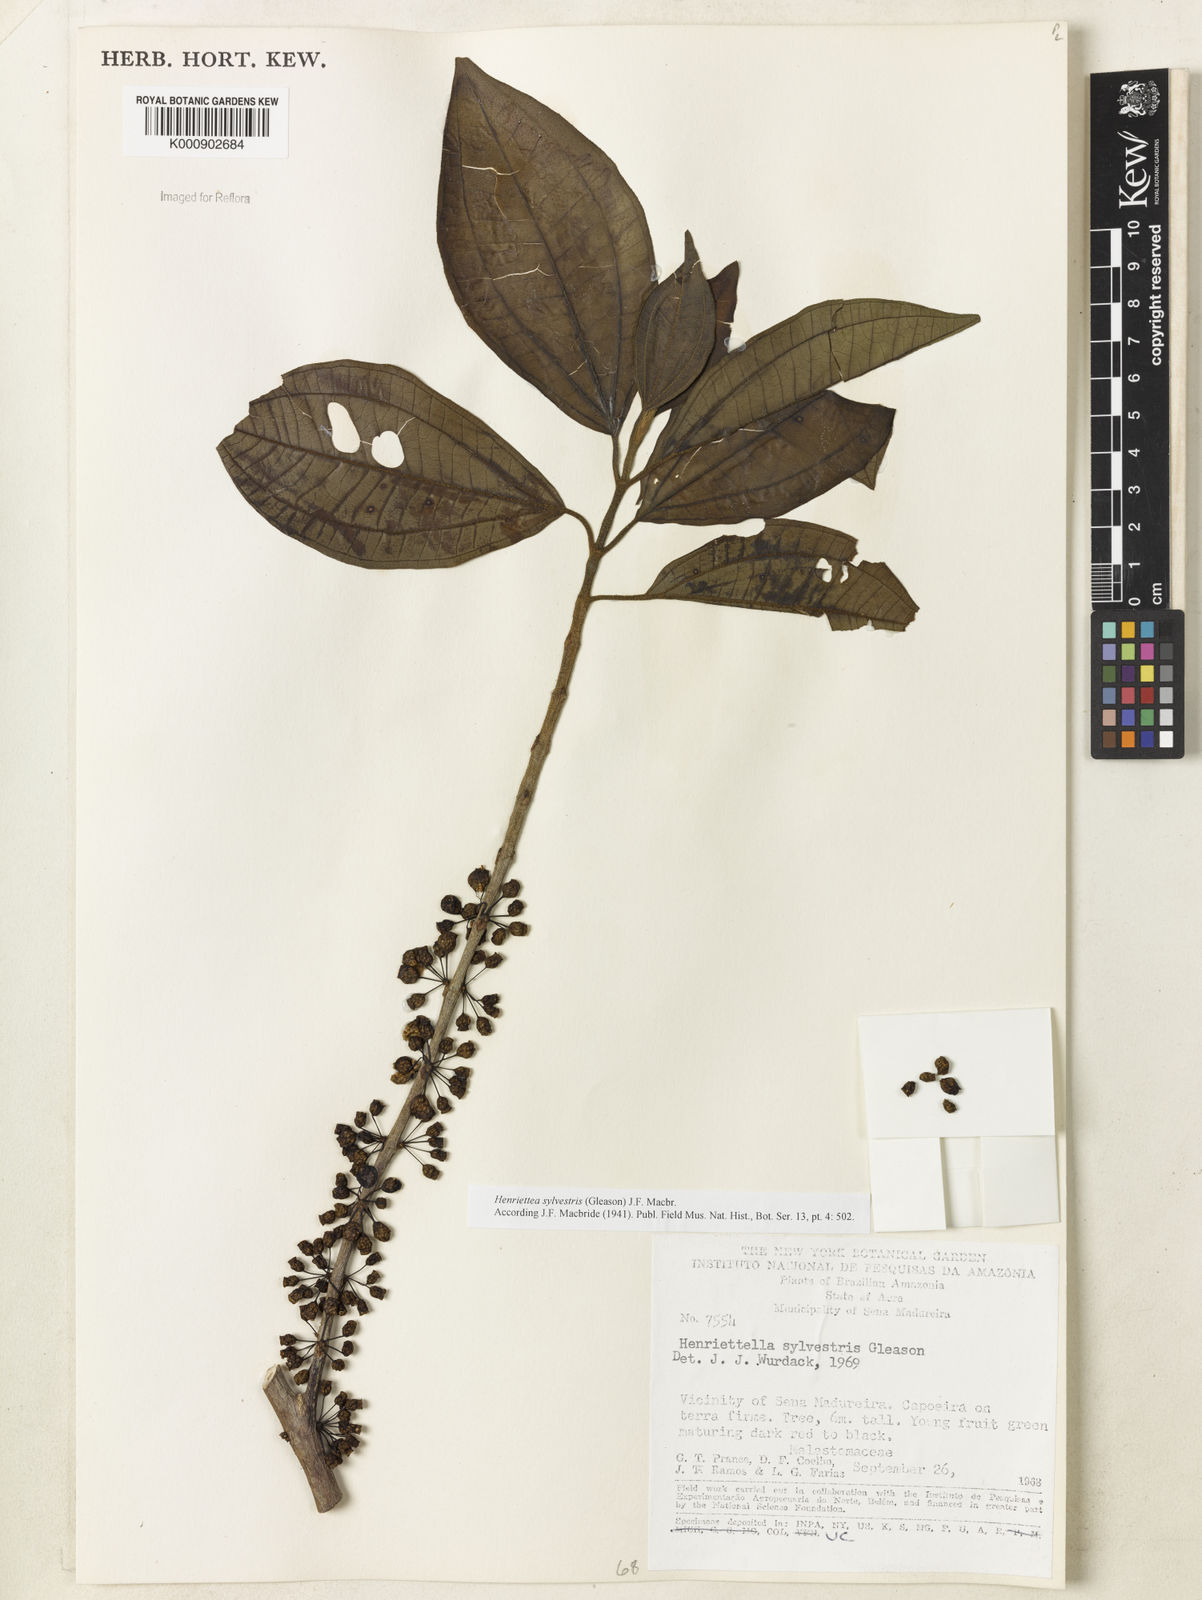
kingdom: Plantae
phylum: Tracheophyta
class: Magnoliopsida
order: Myrtales
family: Melastomataceae
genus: Henriettea
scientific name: Henriettea sylvestris
